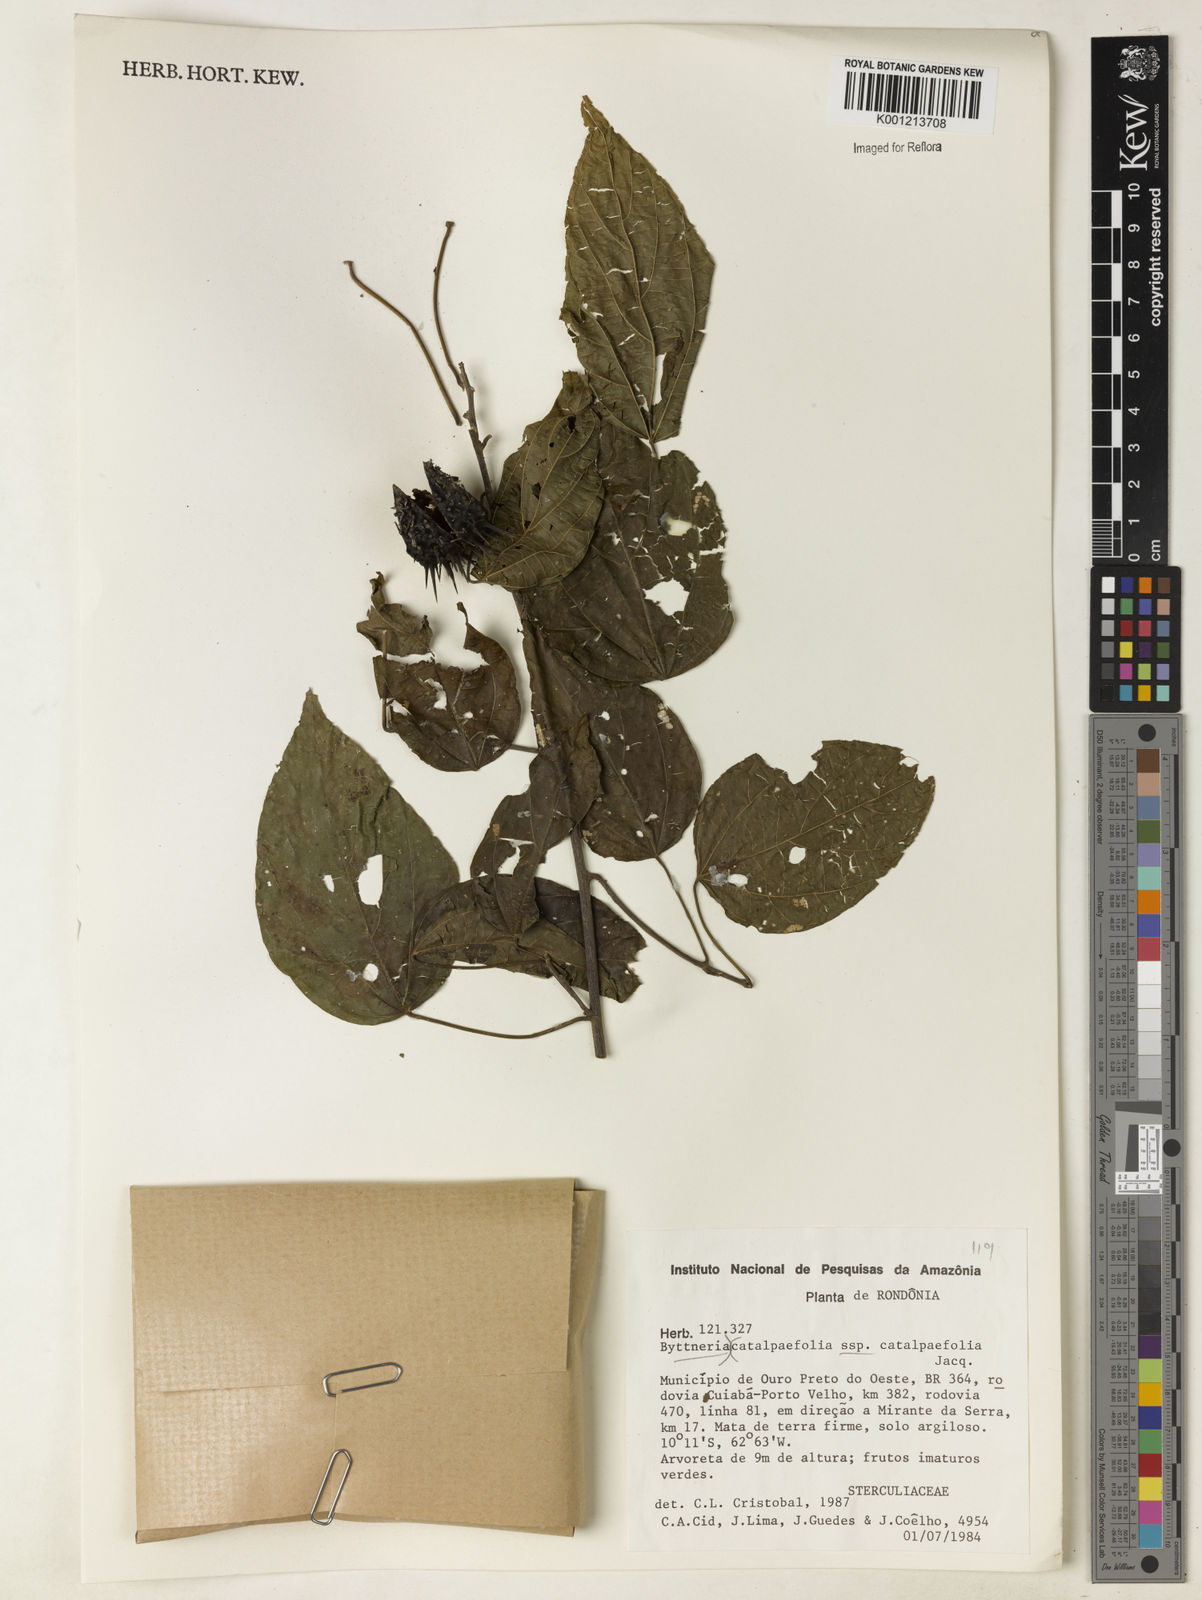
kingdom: Plantae
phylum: Tracheophyta
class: Magnoliopsida
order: Malvales
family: Malvaceae
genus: Byttneria
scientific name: Byttneria catalpifolia
